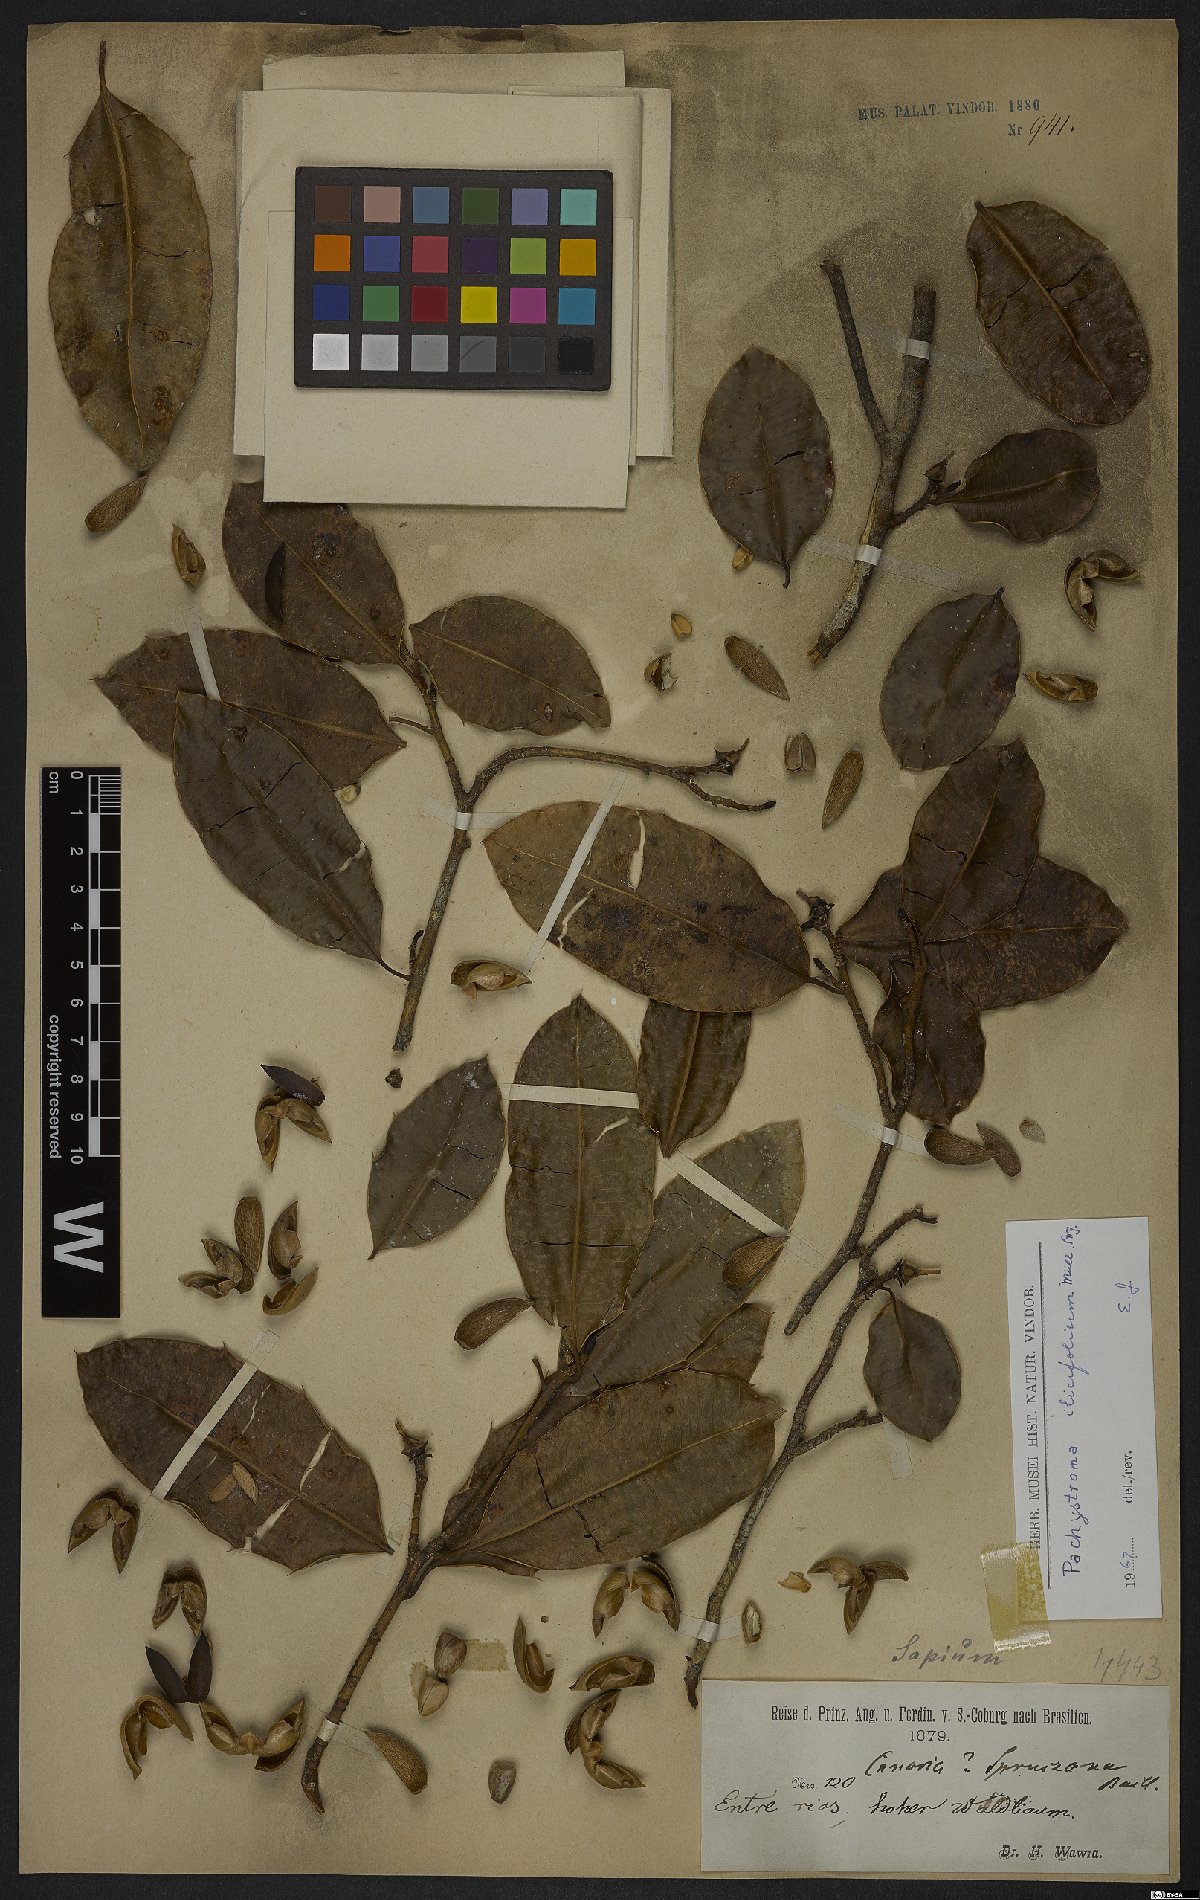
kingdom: Plantae
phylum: Tracheophyta
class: Magnoliopsida
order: Malpighiales
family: Euphorbiaceae
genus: Pachystroma
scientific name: Pachystroma longifolium
